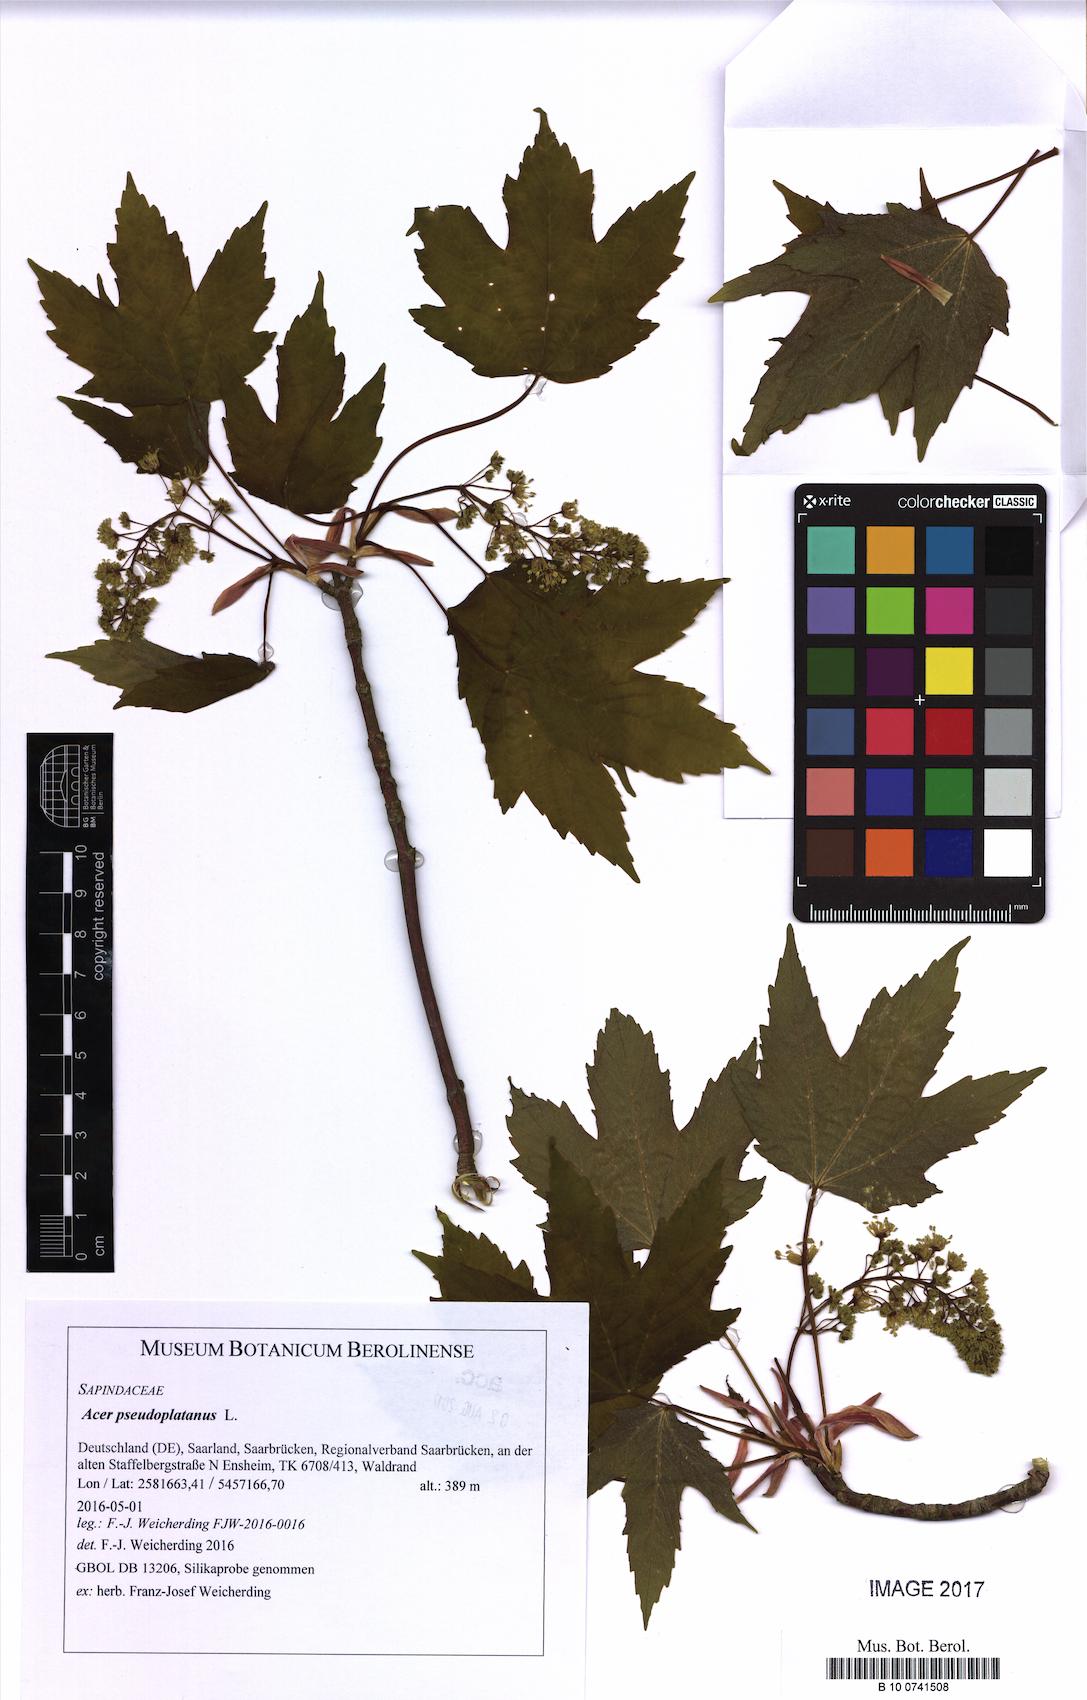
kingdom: Plantae
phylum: Tracheophyta
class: Magnoliopsida
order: Sapindales
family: Sapindaceae
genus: Acer
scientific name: Acer pseudoplatanus
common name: Sycamore
